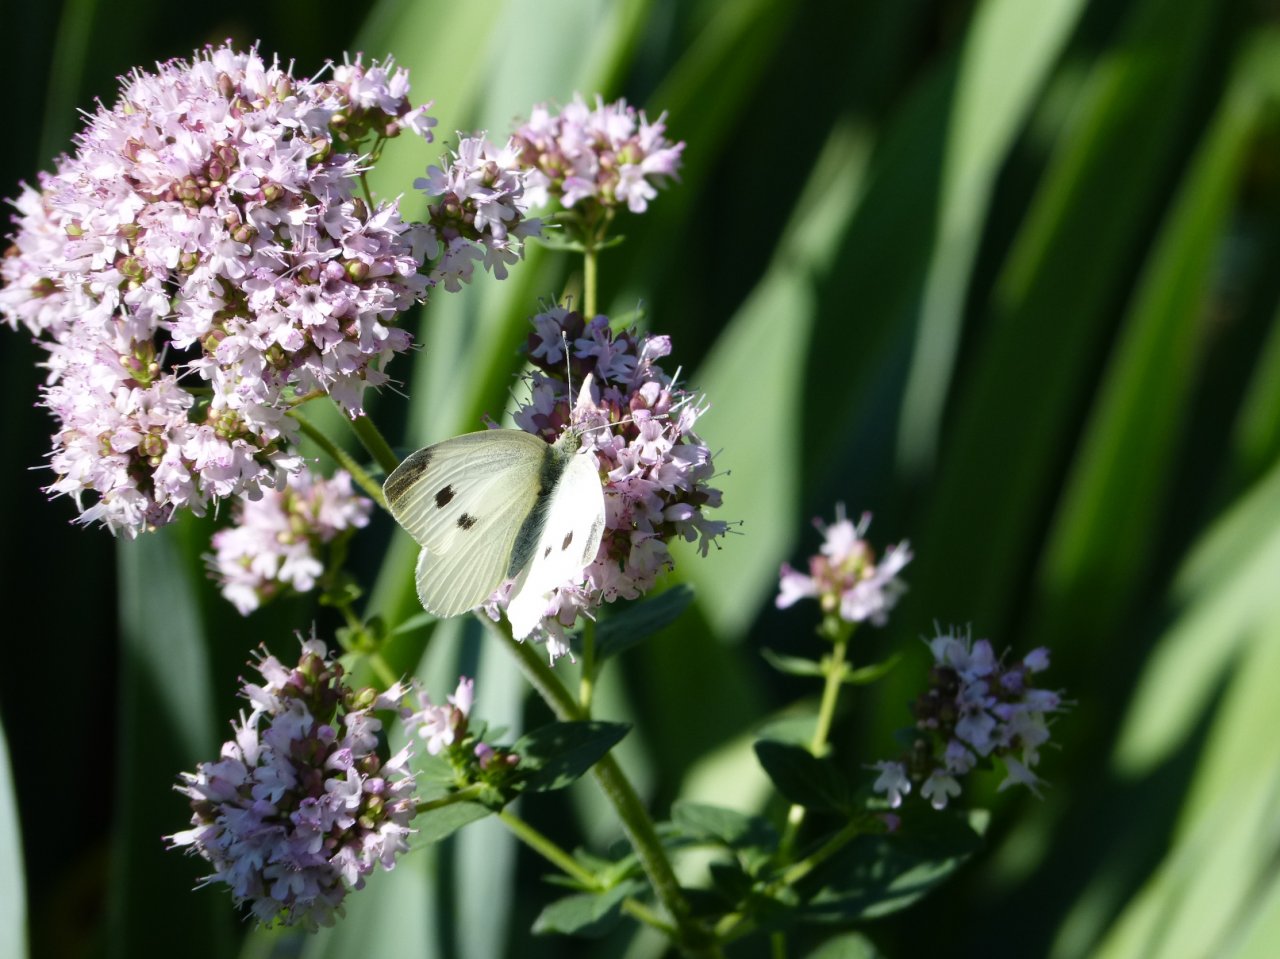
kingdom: Animalia
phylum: Arthropoda
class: Insecta
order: Lepidoptera
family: Pieridae
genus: Pieris
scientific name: Pieris rapae
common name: Cabbage White
